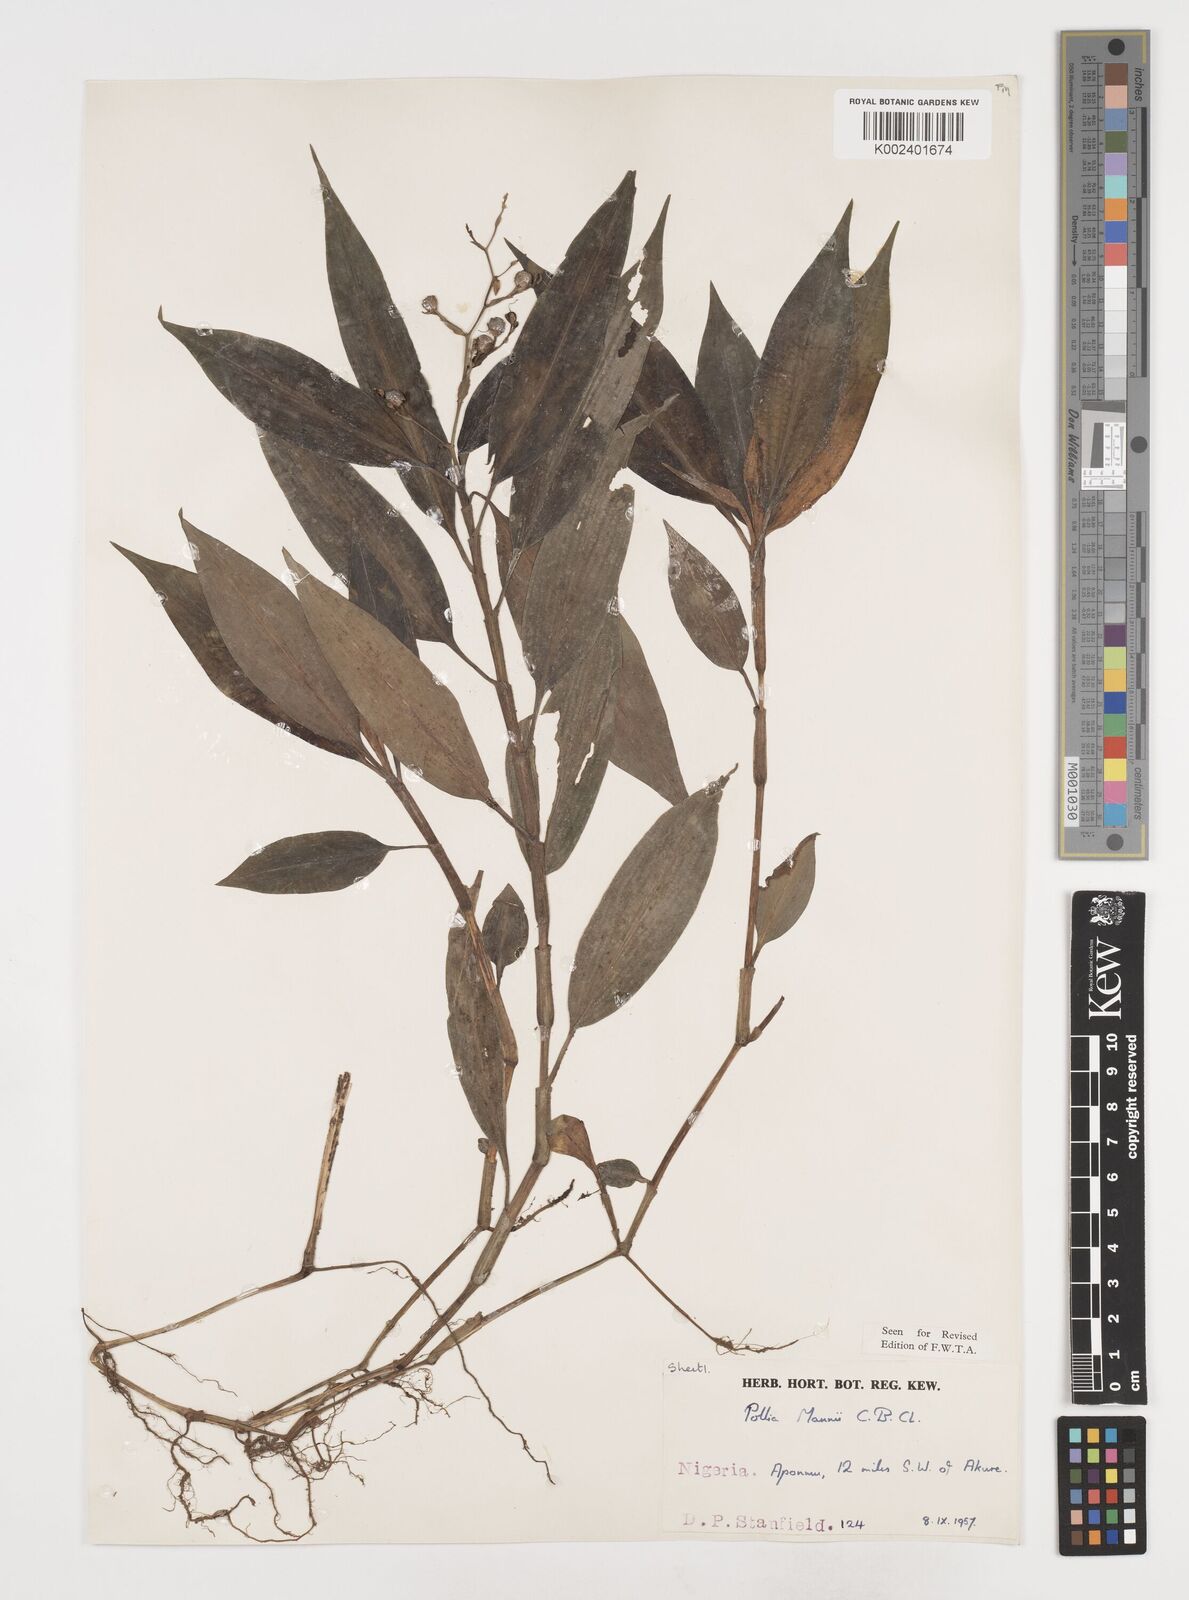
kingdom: Plantae
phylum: Tracheophyta
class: Liliopsida
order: Commelinales
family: Commelinaceae
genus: Pollia
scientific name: Pollia mannii
